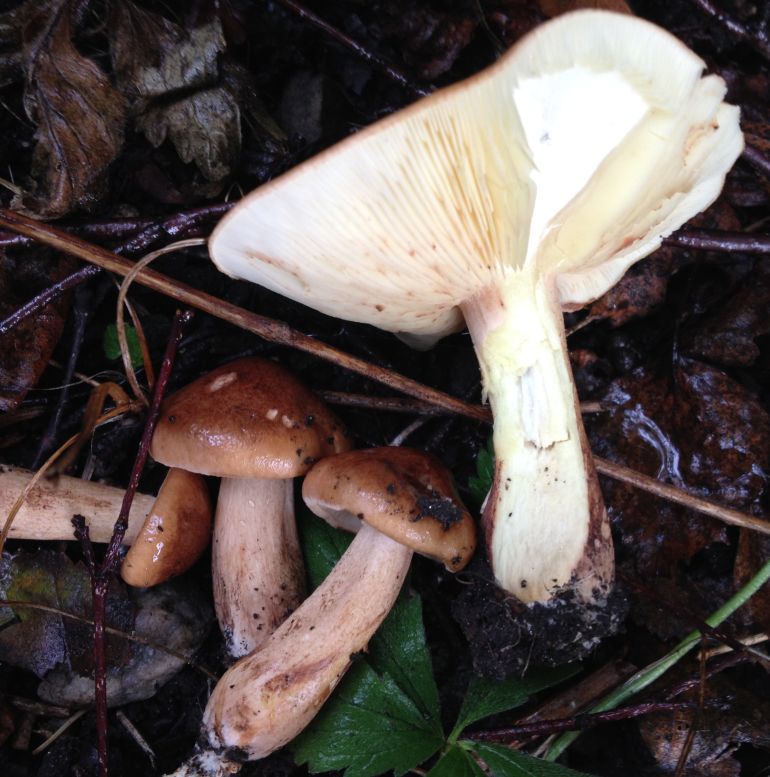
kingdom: Fungi
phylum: Basidiomycota
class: Agaricomycetes
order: Agaricales
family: Tricholomataceae
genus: Tricholoma
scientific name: Tricholoma fulvum
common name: birke-ridderhat
